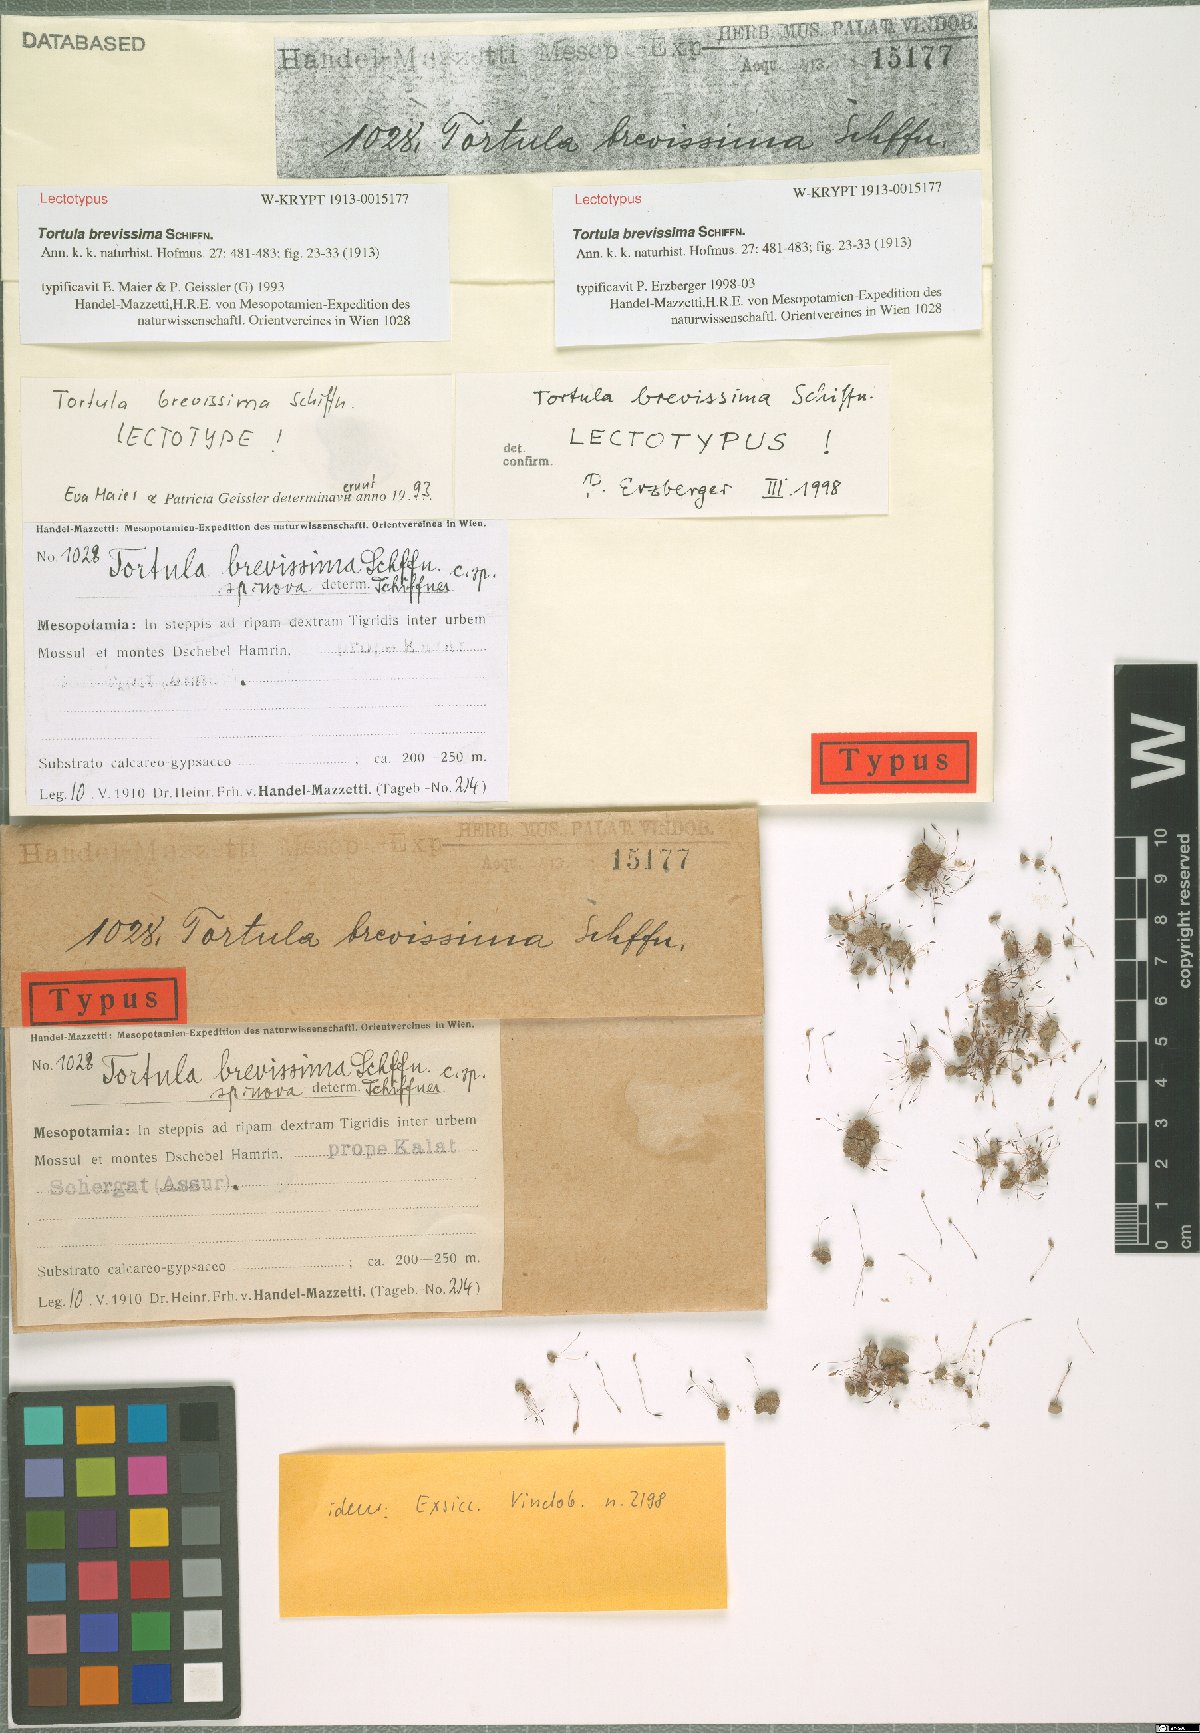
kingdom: Plantae
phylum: Bryophyta
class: Bryopsida
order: Pottiales
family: Pottiaceae
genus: Tortula
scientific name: Tortula brevissima
